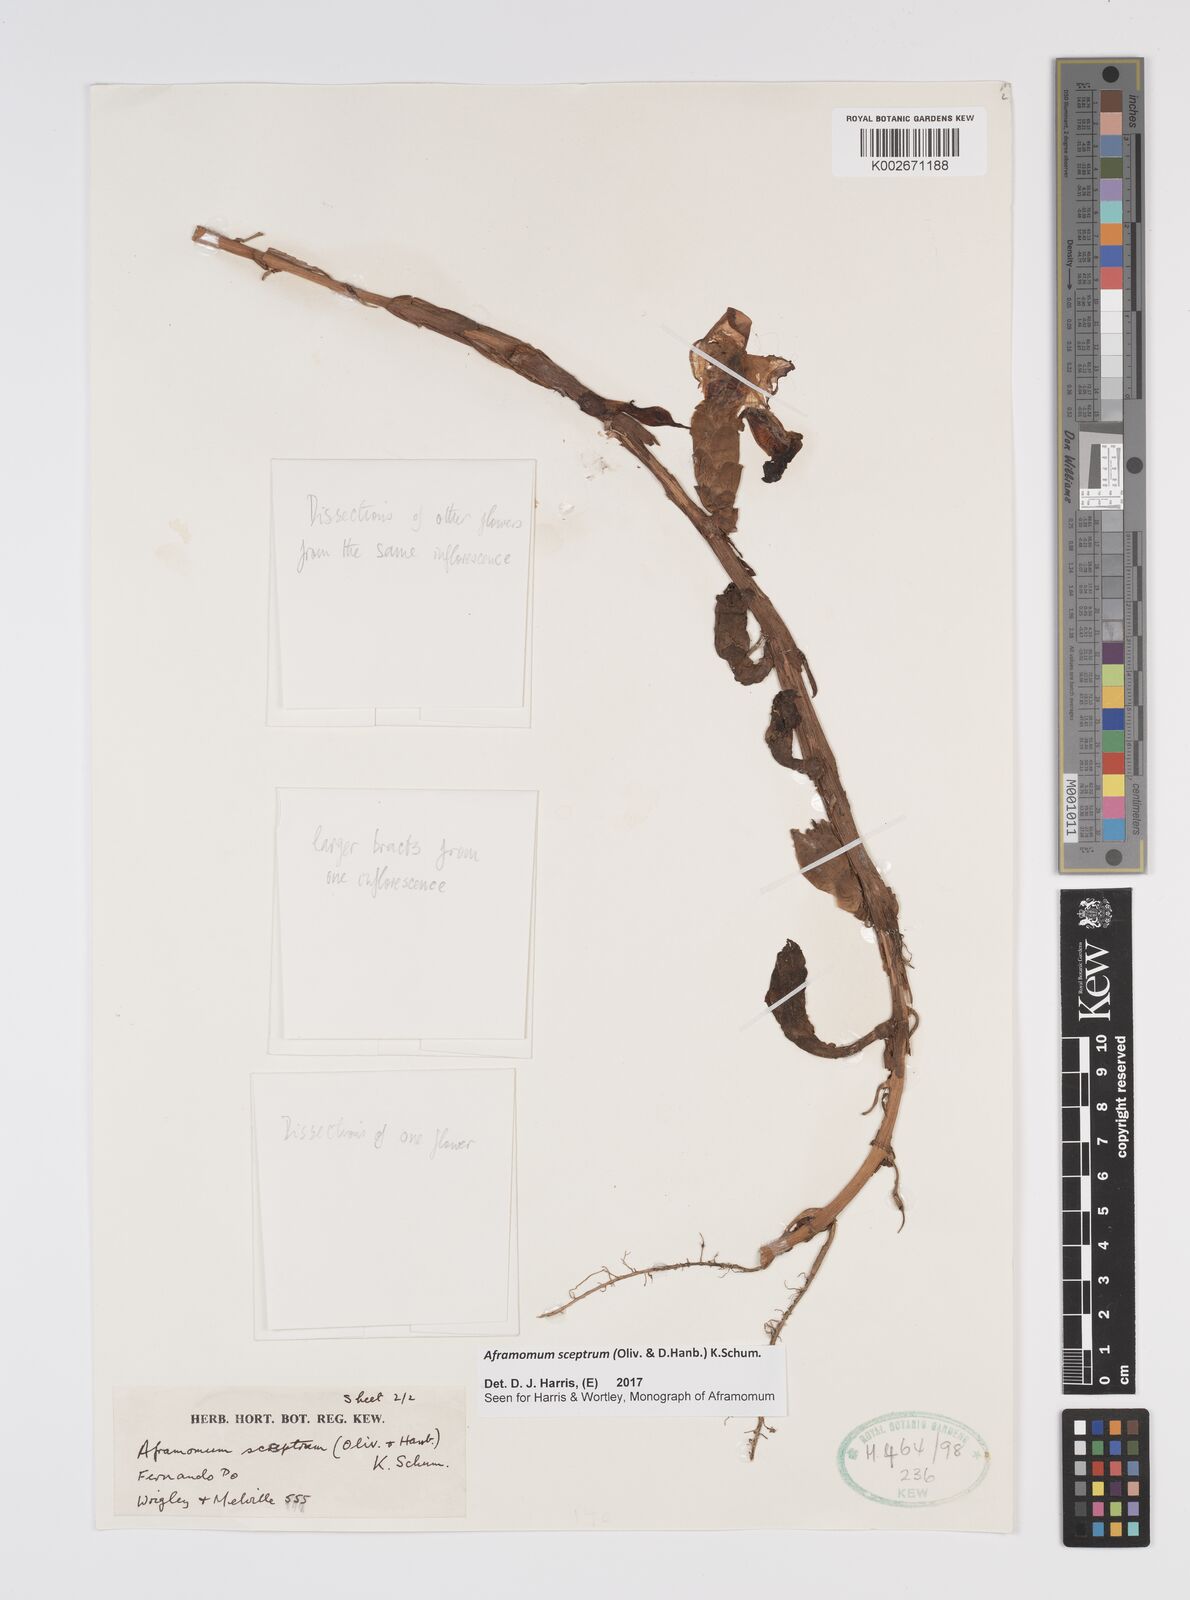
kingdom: Plantae
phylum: Tracheophyta
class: Liliopsida
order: Zingiberales
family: Zingiberaceae
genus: Aframomum
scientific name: Aframomum cereum
